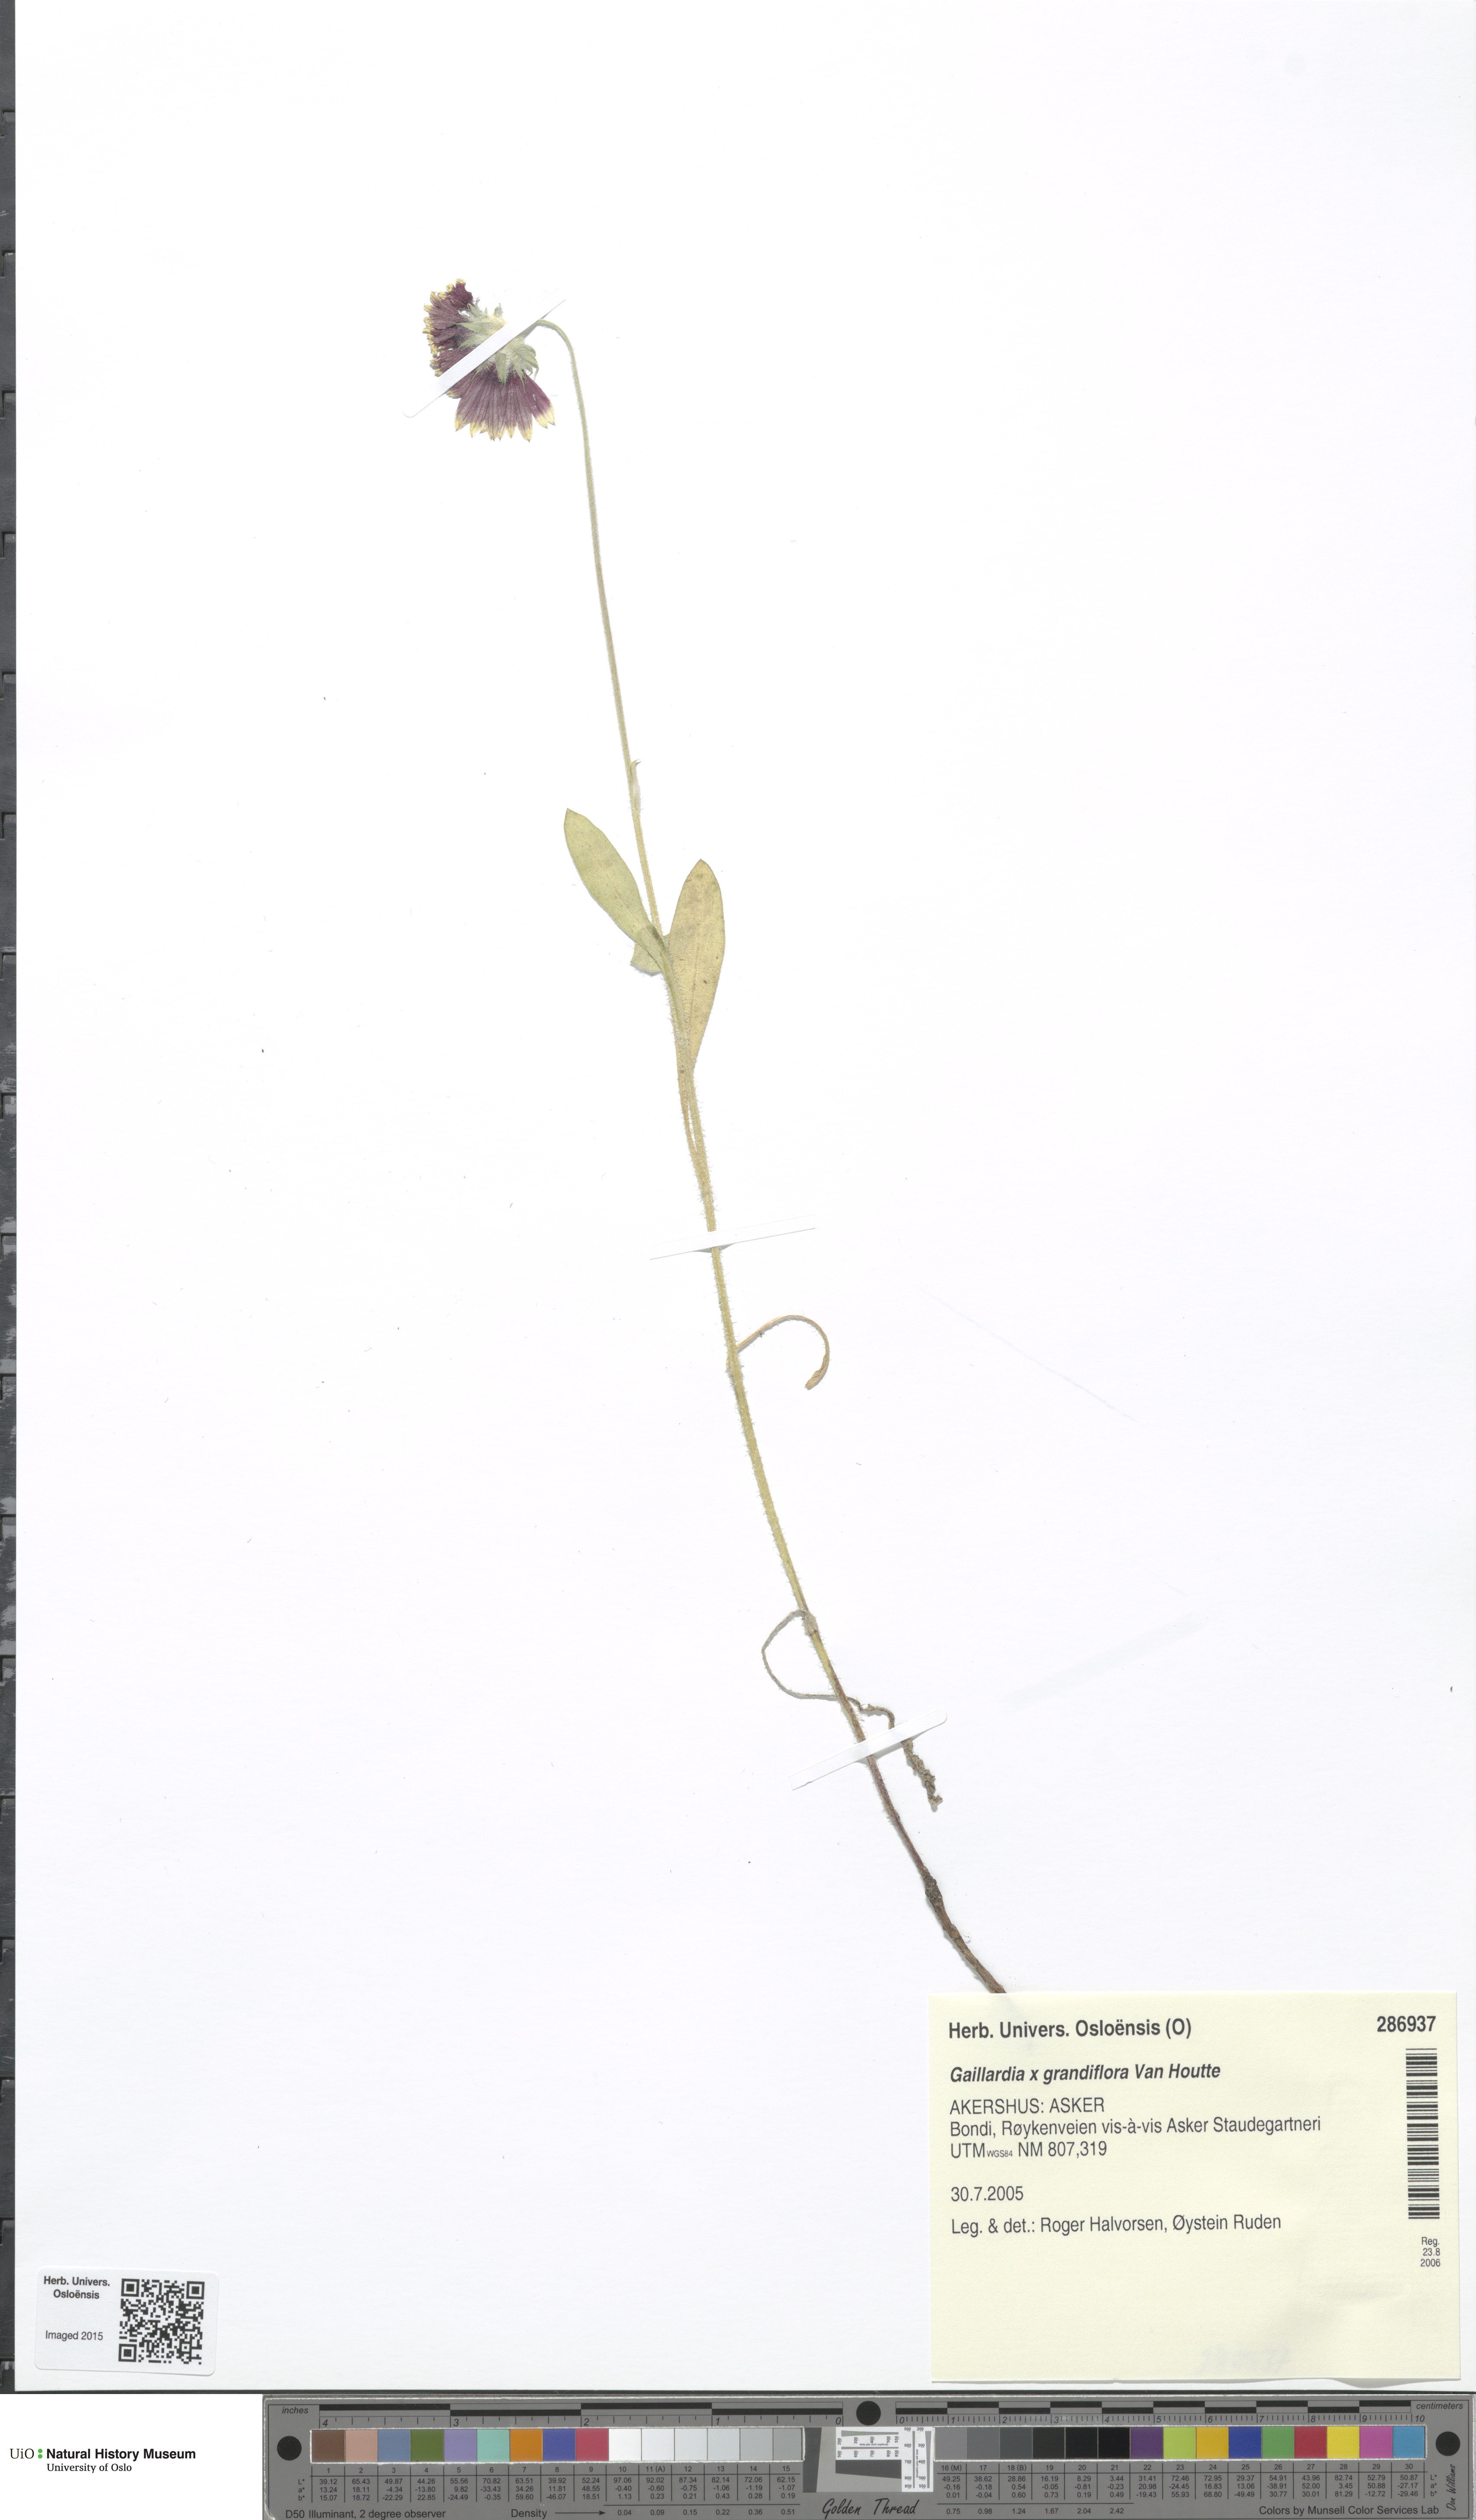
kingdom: Plantae
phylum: Tracheophyta
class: Magnoliopsida
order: Asterales
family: Asteraceae
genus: Gaillardia
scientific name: Gaillardia grandiflora
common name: Blanket flower
